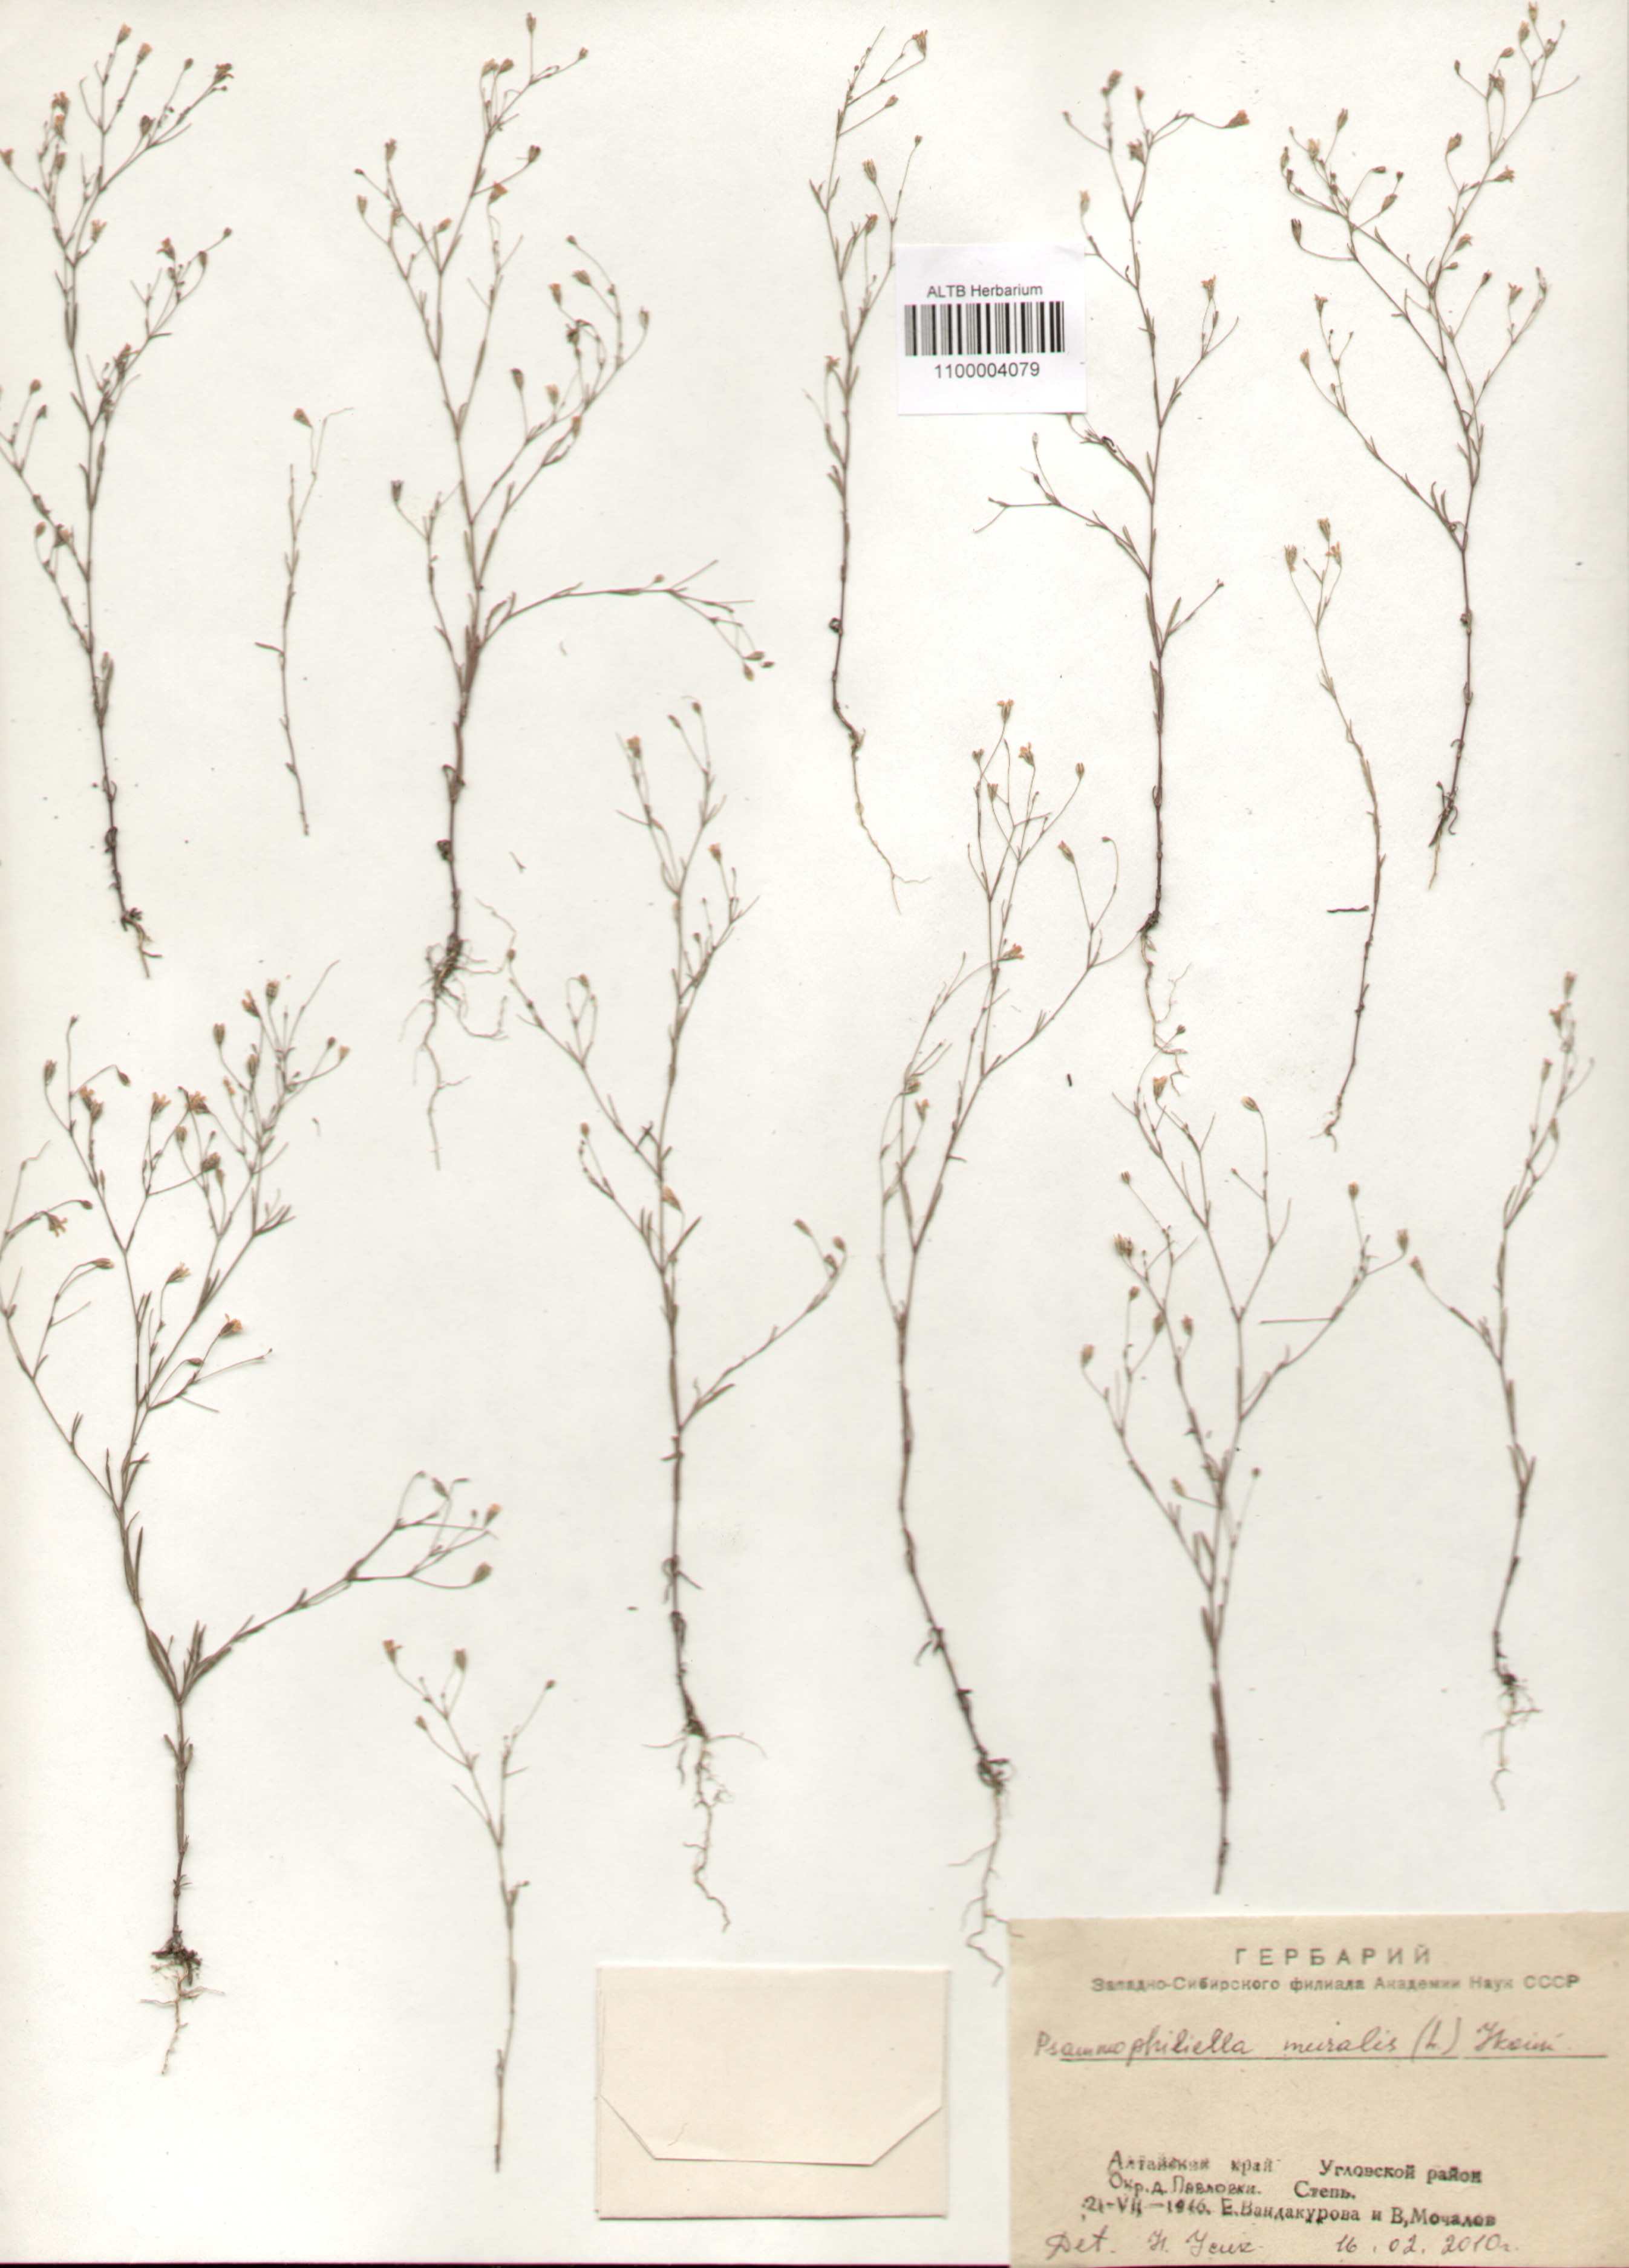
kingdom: Plantae
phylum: Tracheophyta
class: Magnoliopsida
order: Caryophyllales
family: Caryophyllaceae
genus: Psammophiliella
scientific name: Psammophiliella muralis
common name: Cushion baby's-breath
